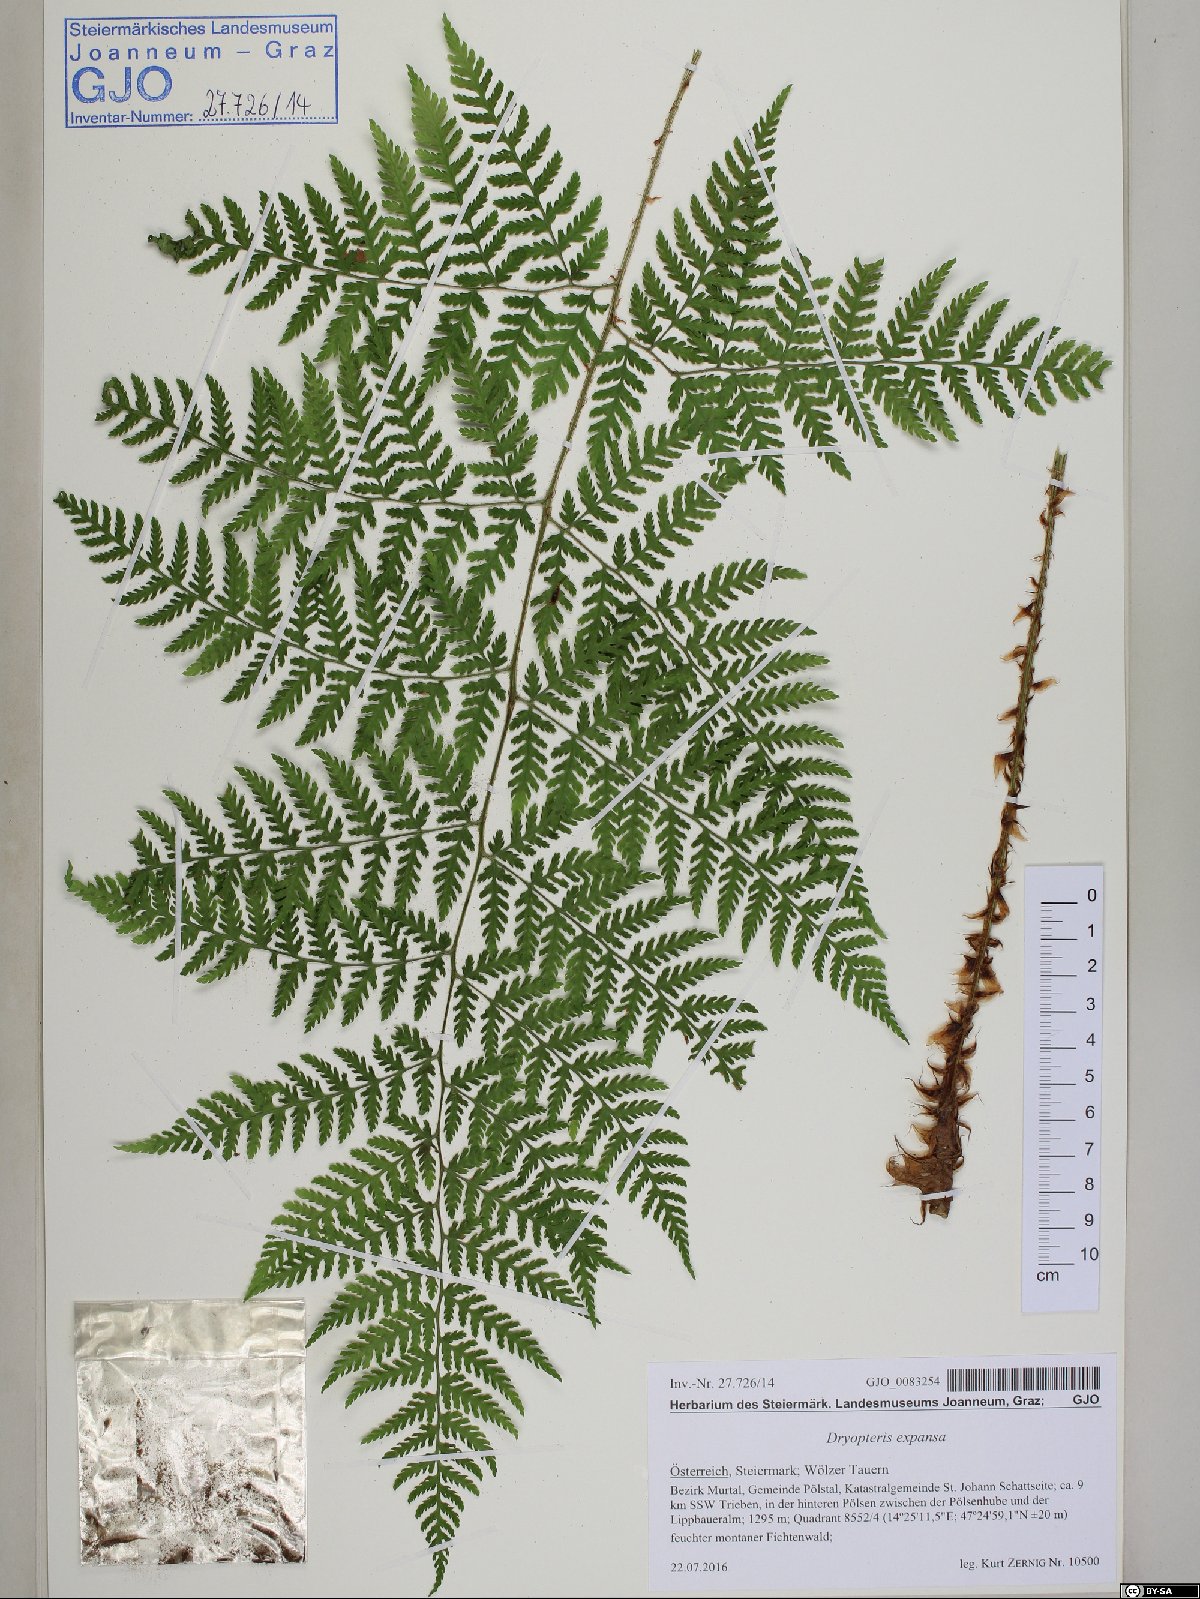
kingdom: Plantae
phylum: Tracheophyta
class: Polypodiopsida
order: Polypodiales
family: Dryopteridaceae
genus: Dryopteris
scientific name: Dryopteris expansa
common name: Northern buckler fern
